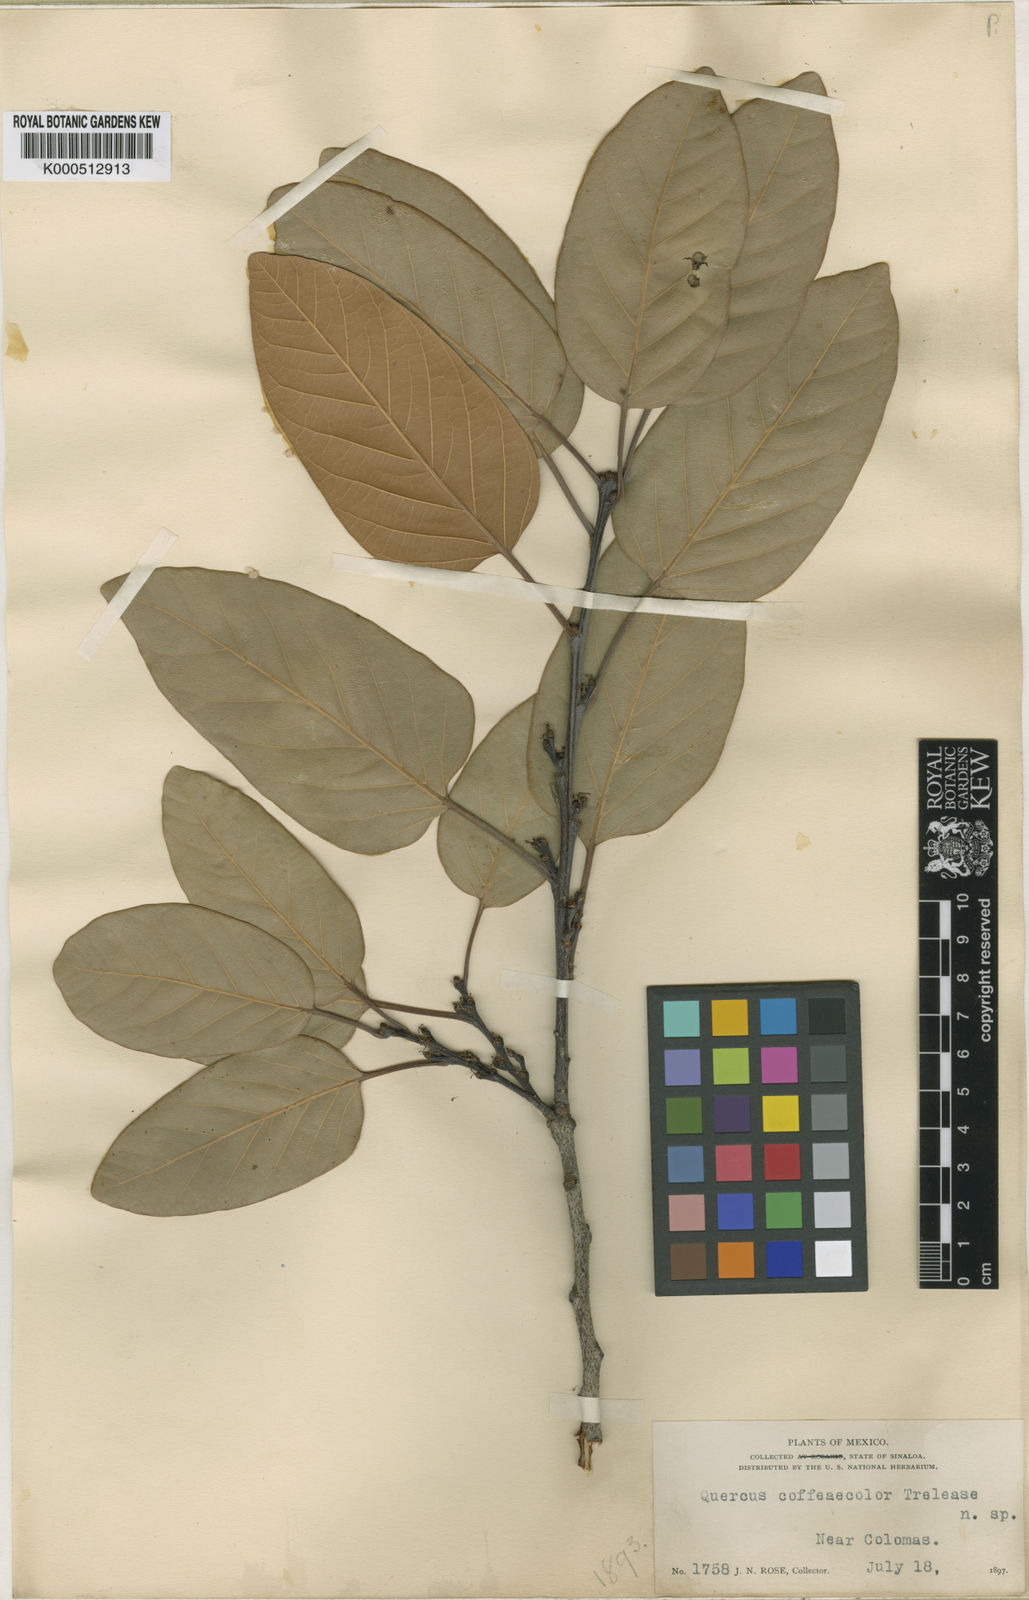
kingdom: Plantae
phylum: Tracheophyta
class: Magnoliopsida
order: Fagales
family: Fagaceae
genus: Quercus
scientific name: Quercus
